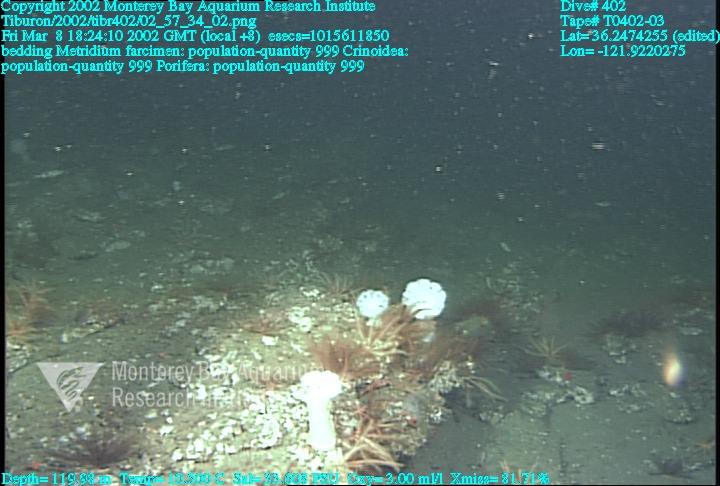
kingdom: Animalia
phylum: Porifera
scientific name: Porifera
